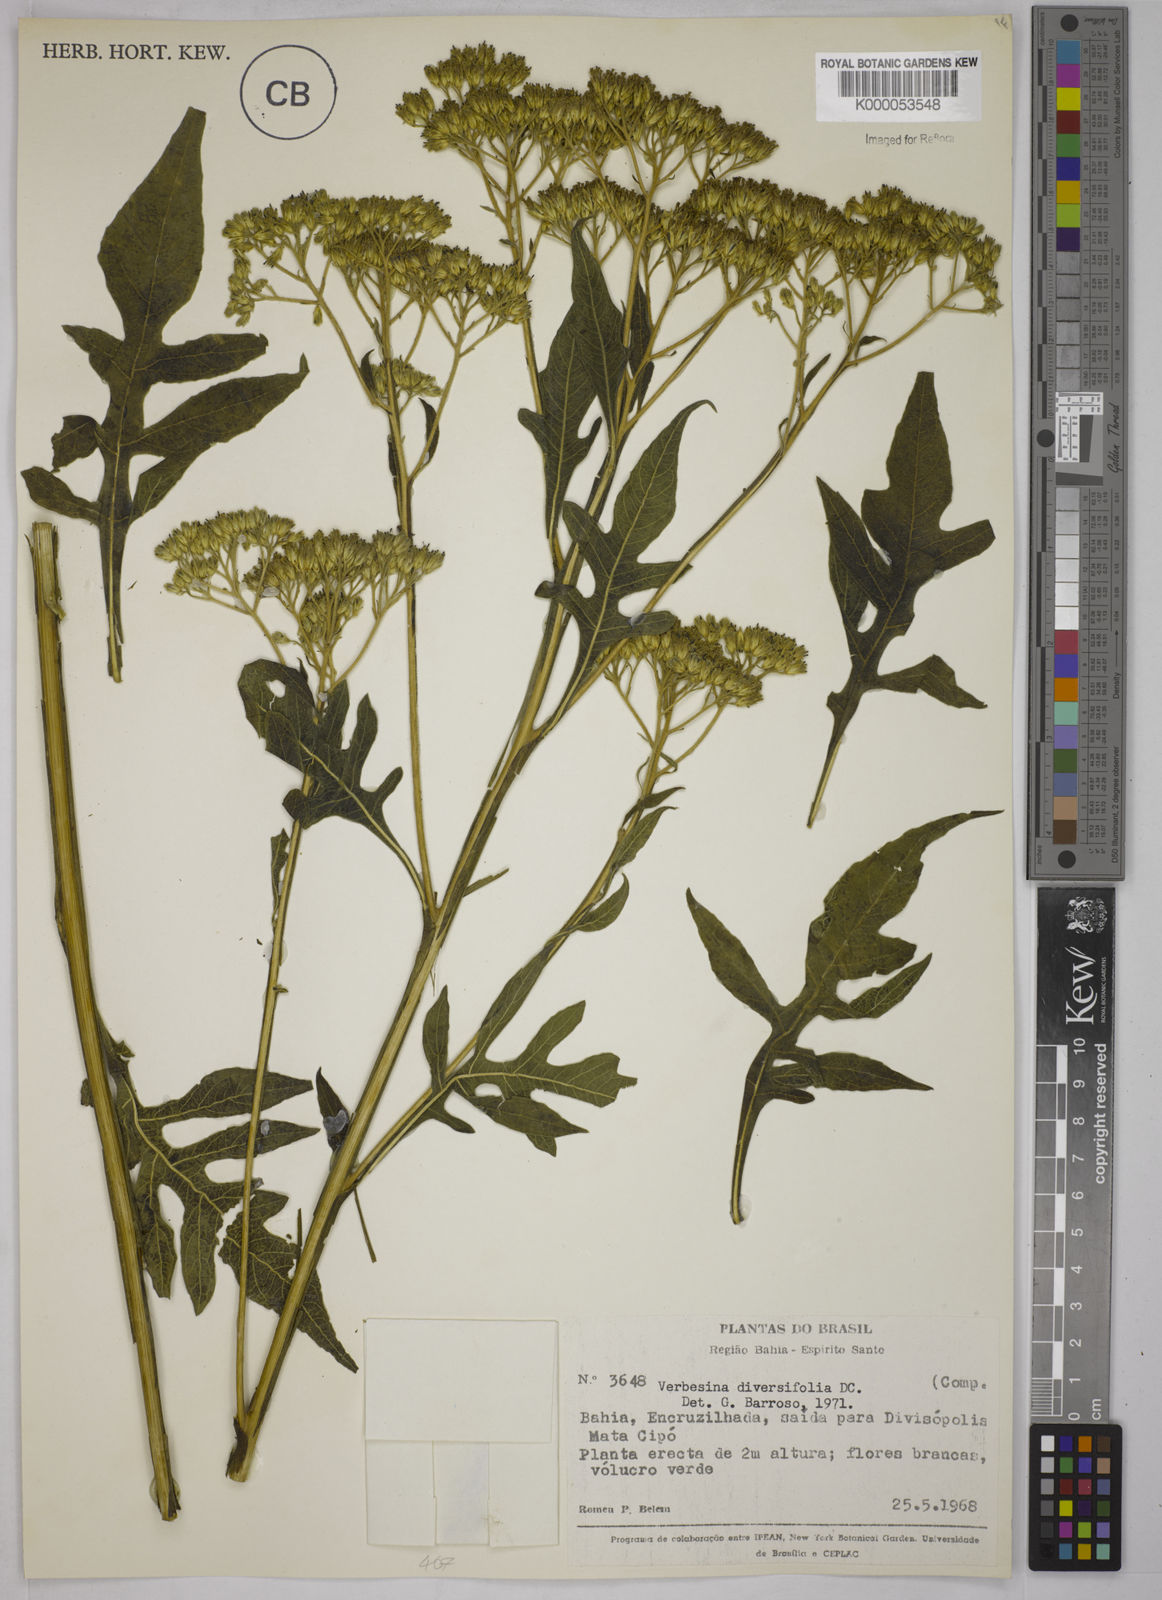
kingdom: Plantae
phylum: Tracheophyta
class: Magnoliopsida
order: Asterales
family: Asteraceae
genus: Verbesina
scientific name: Verbesina macrophylla
